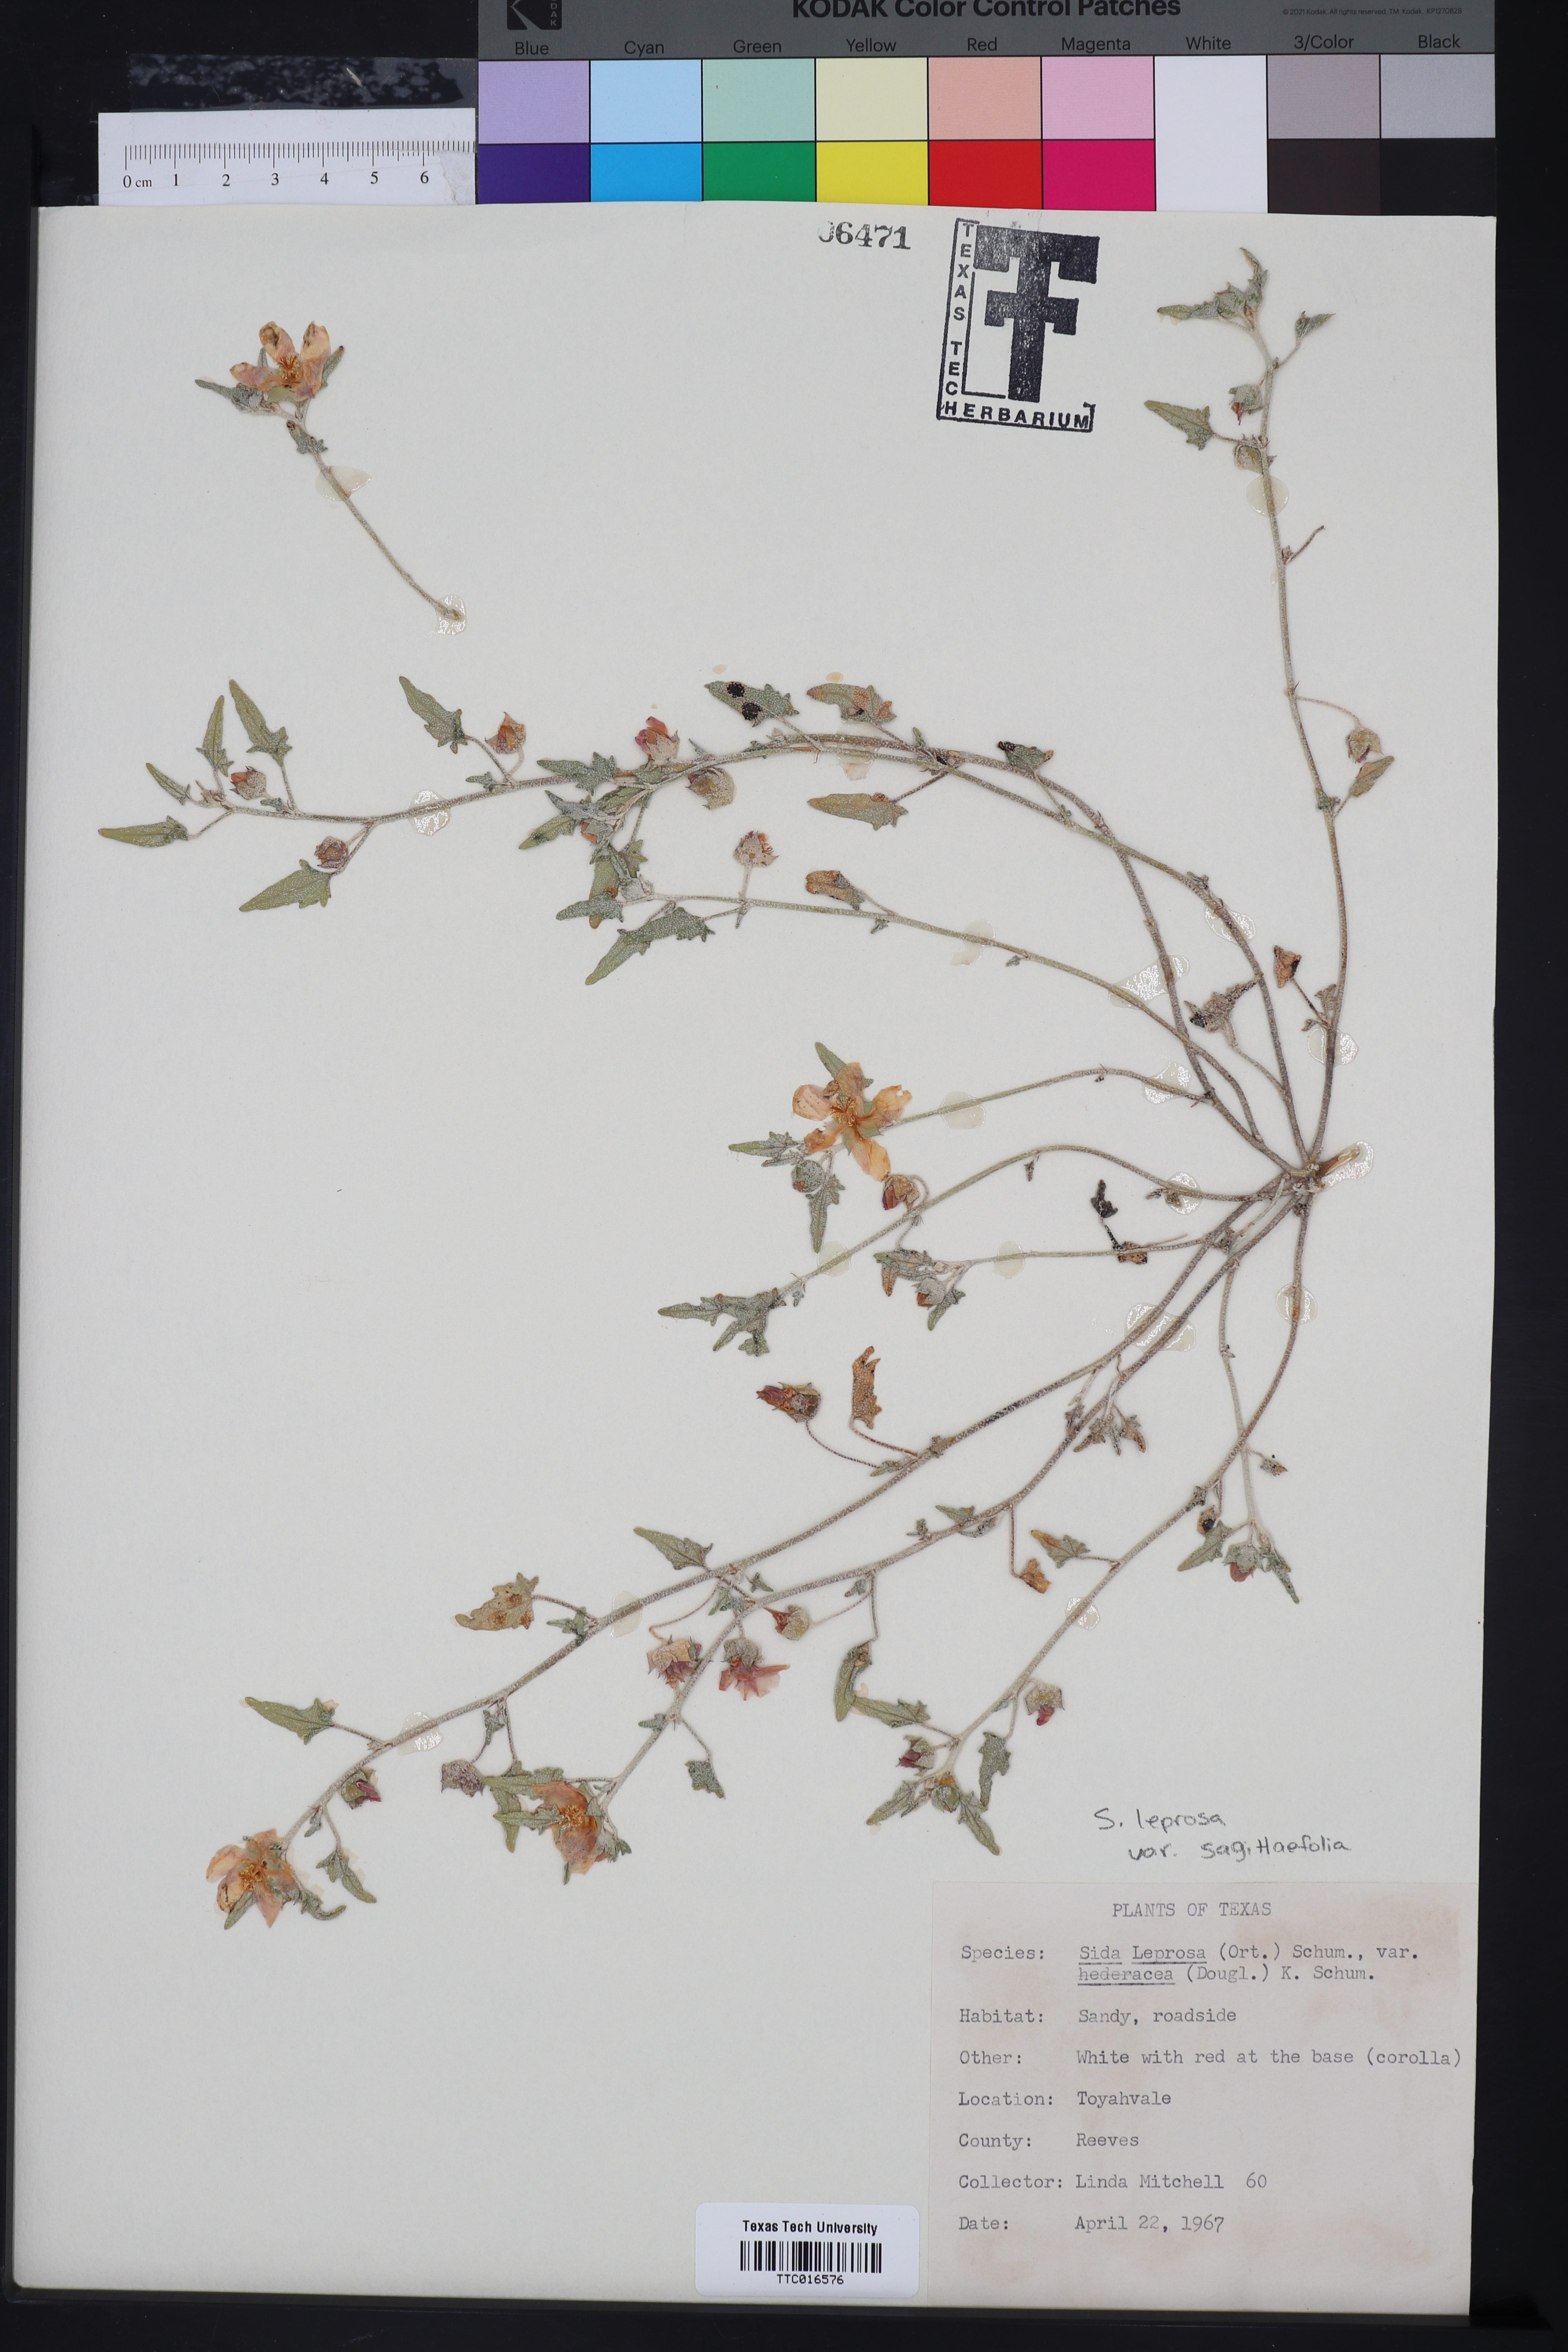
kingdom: Plantae
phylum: Tracheophyta
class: Magnoliopsida
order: Malvales
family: Malvaceae
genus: Malvella
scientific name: Malvella leprosa
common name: Alkali-mallow
